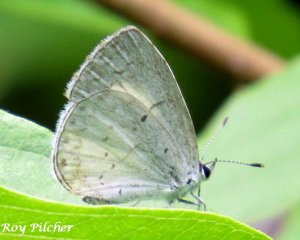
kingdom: Animalia
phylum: Arthropoda
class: Insecta
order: Lepidoptera
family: Lycaenidae
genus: Cyaniris
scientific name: Cyaniris neglecta
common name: Summer Azure
